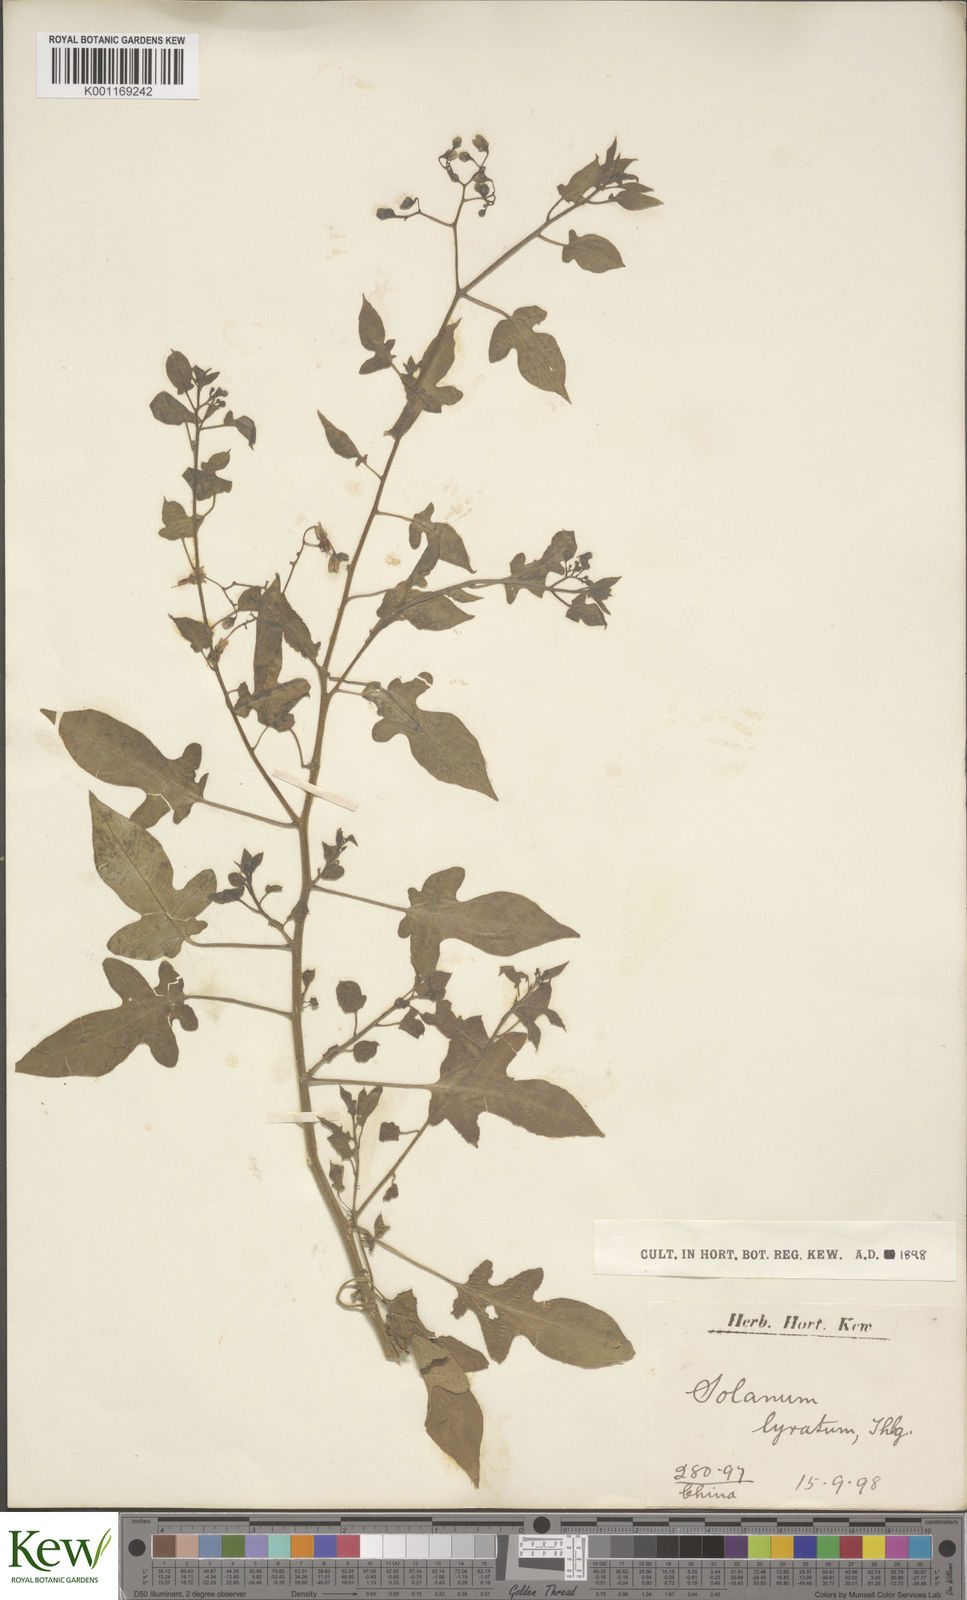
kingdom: Plantae
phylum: Tracheophyta
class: Magnoliopsida
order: Solanales
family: Solanaceae
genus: Solanum
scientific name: Solanum lyratum
